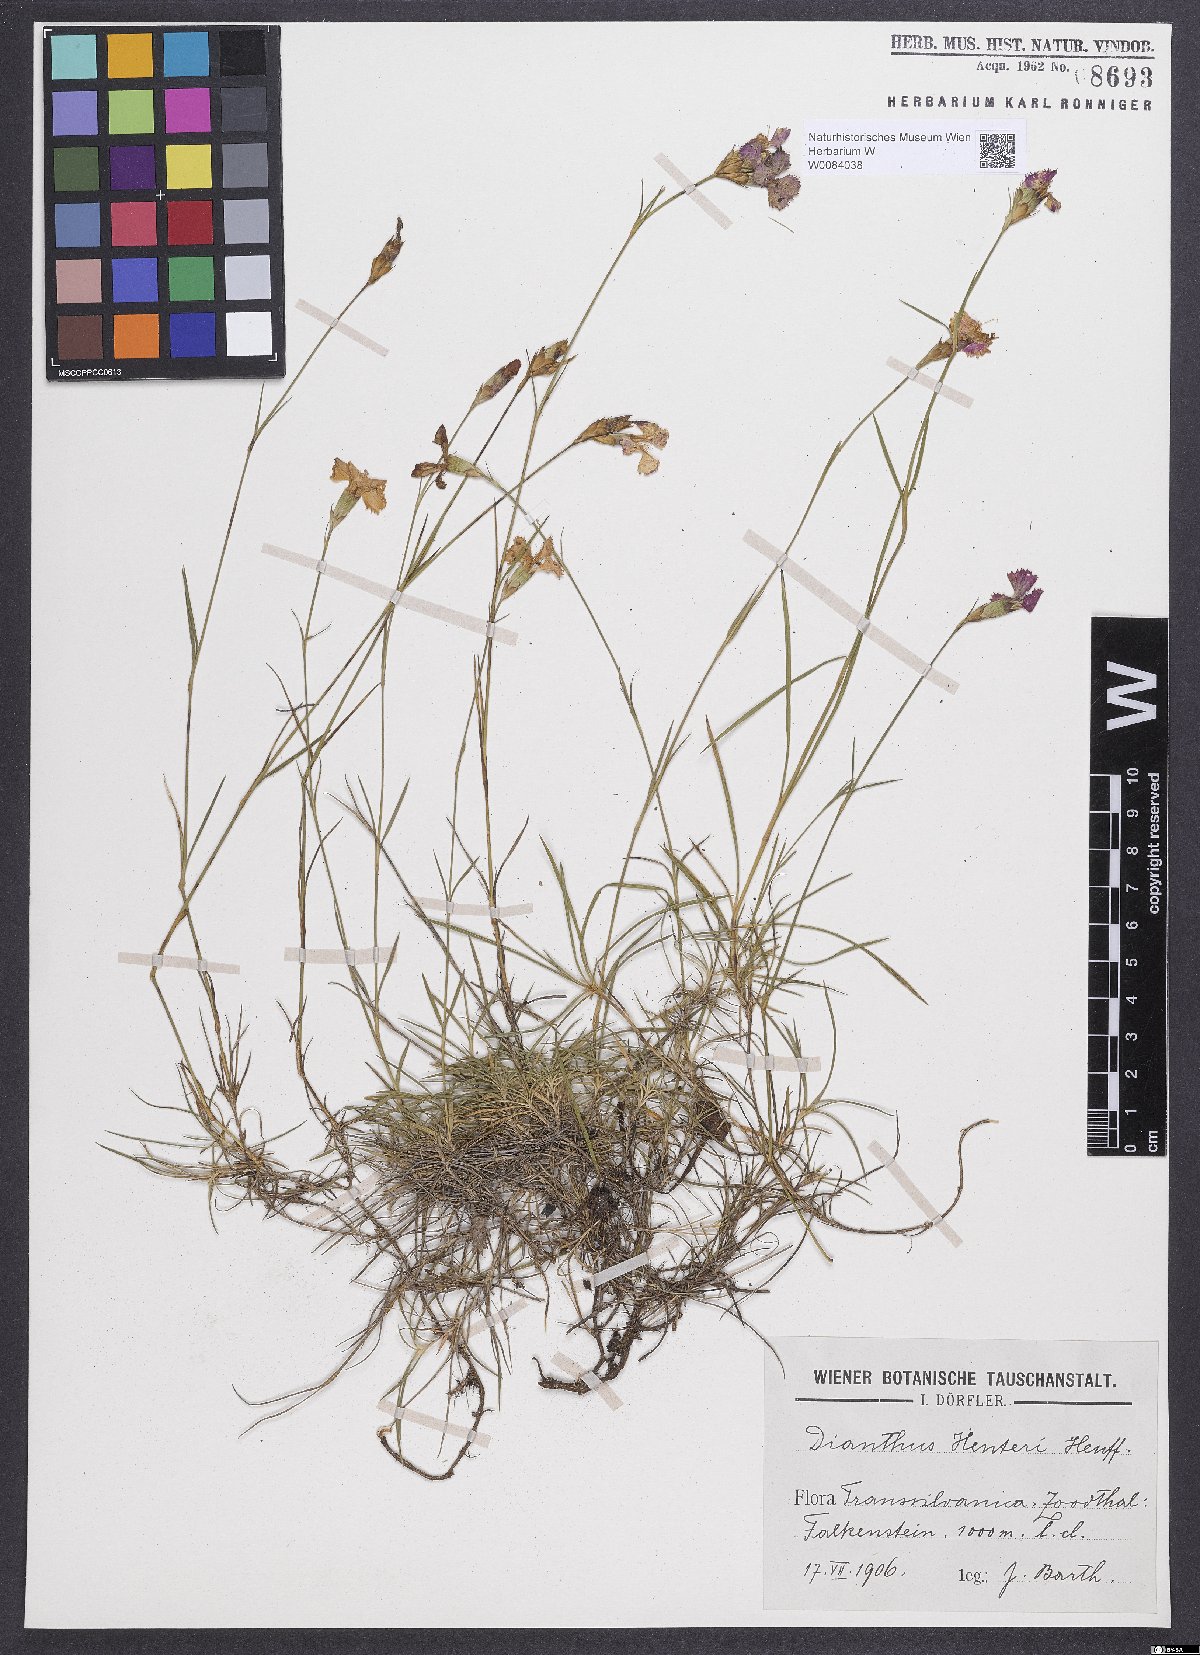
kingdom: Plantae
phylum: Tracheophyta
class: Magnoliopsida
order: Caryophyllales
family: Caryophyllaceae
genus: Dianthus
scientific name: Dianthus henteri
